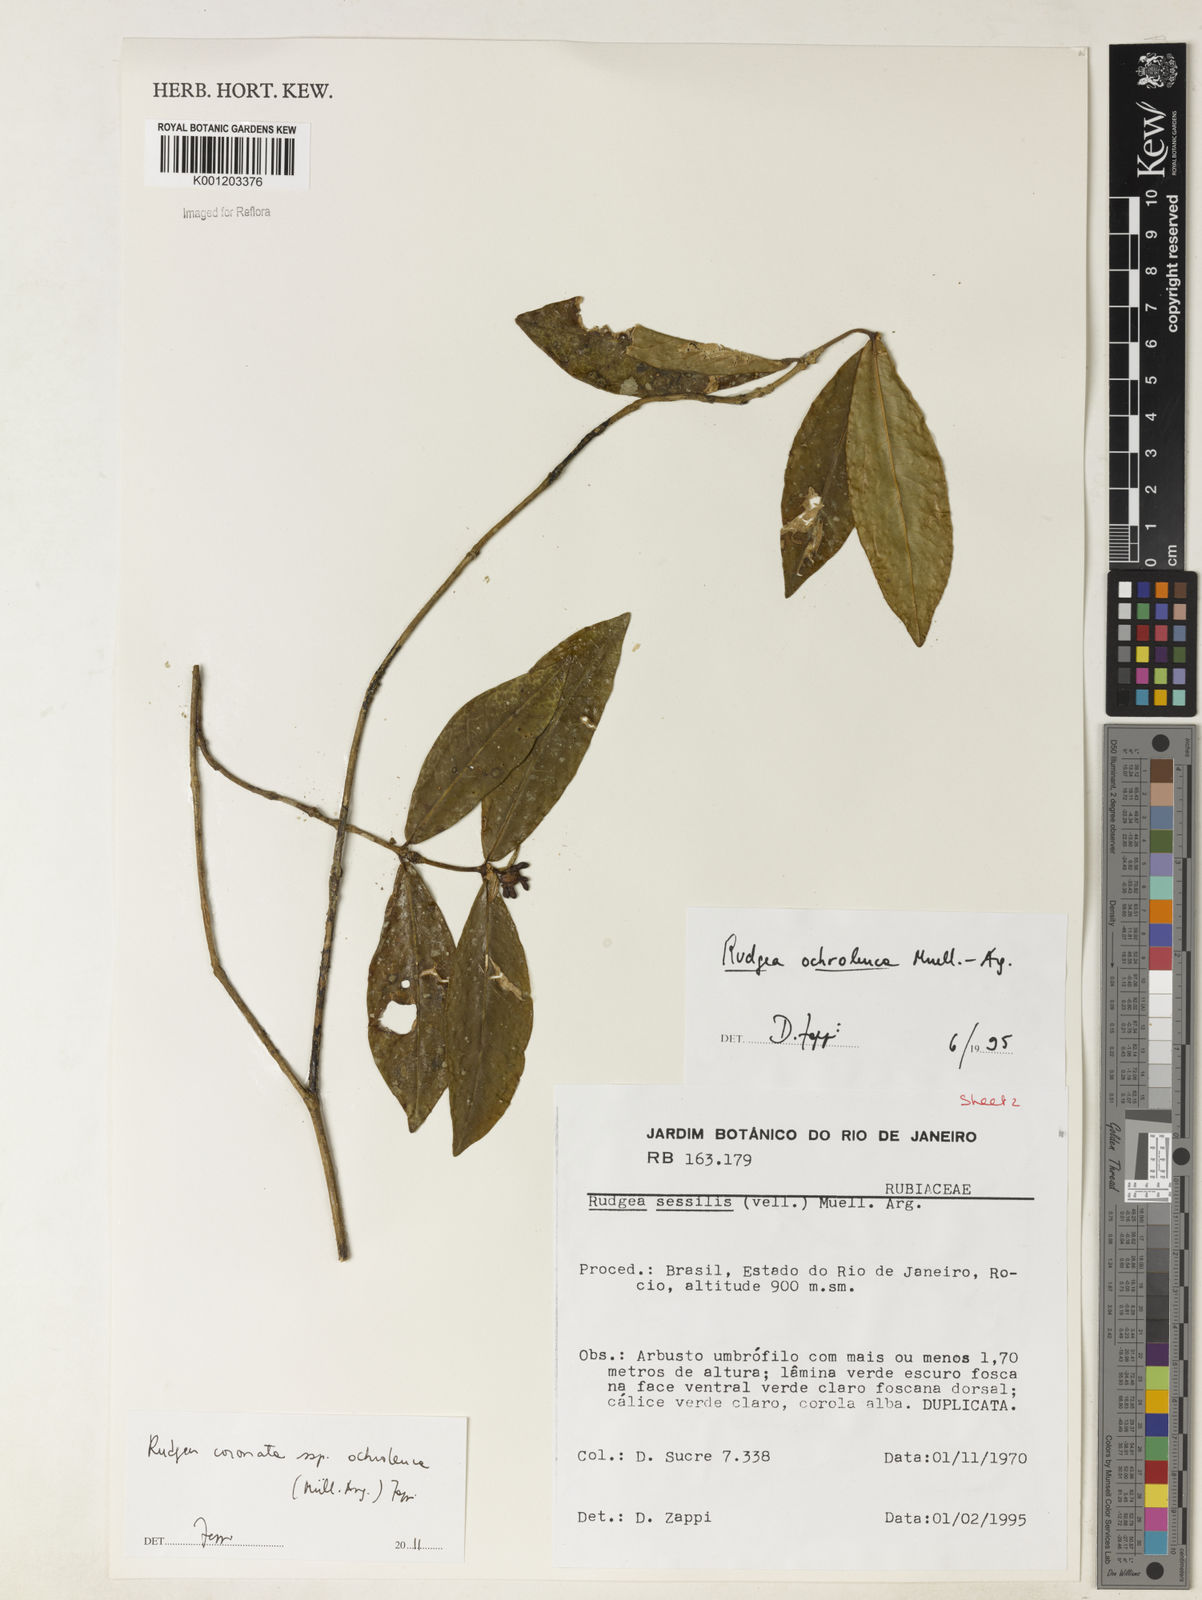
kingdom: Plantae
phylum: Tracheophyta
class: Magnoliopsida
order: Gentianales
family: Rubiaceae
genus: Rudgea
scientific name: Rudgea
